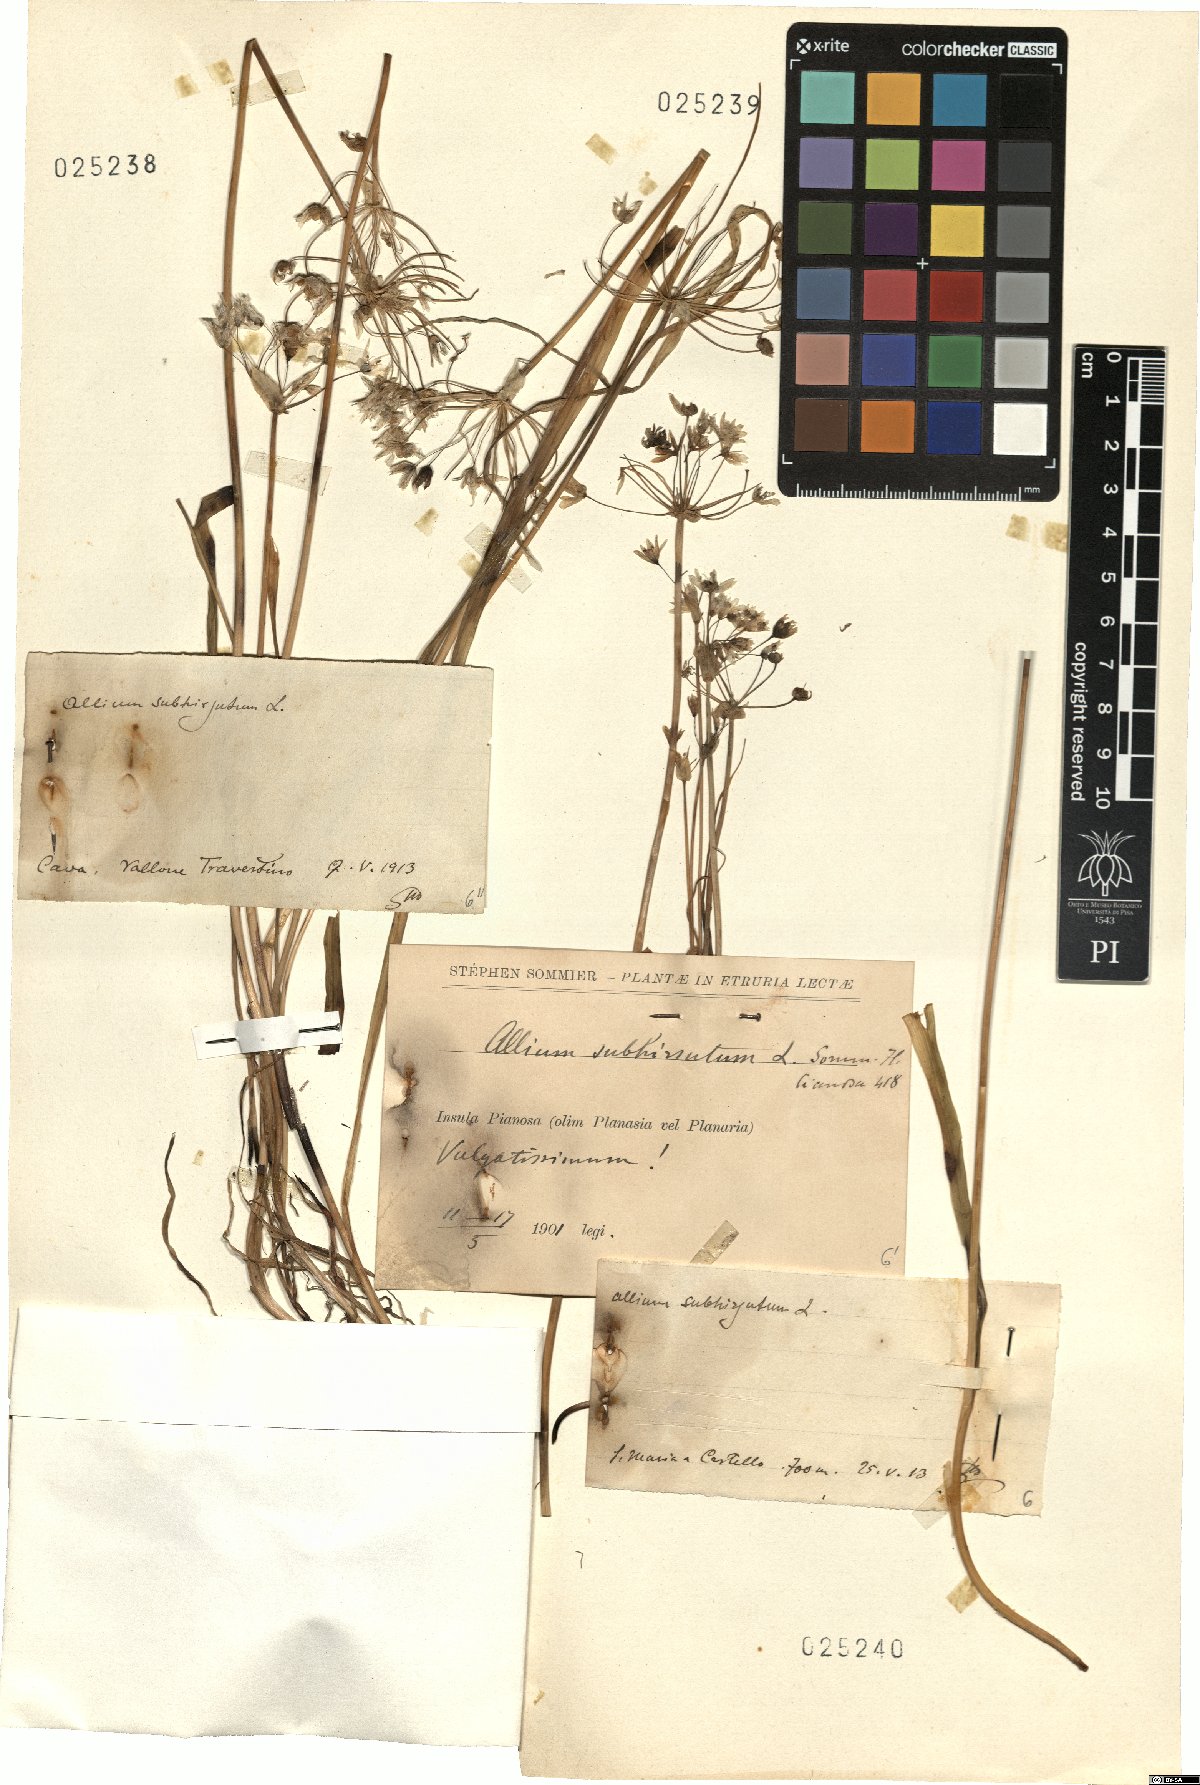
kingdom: Plantae
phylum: Tracheophyta
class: Liliopsida
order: Asparagales
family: Amaryllidaceae
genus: Allium
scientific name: Allium subhirsutum
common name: Hairy garlic
